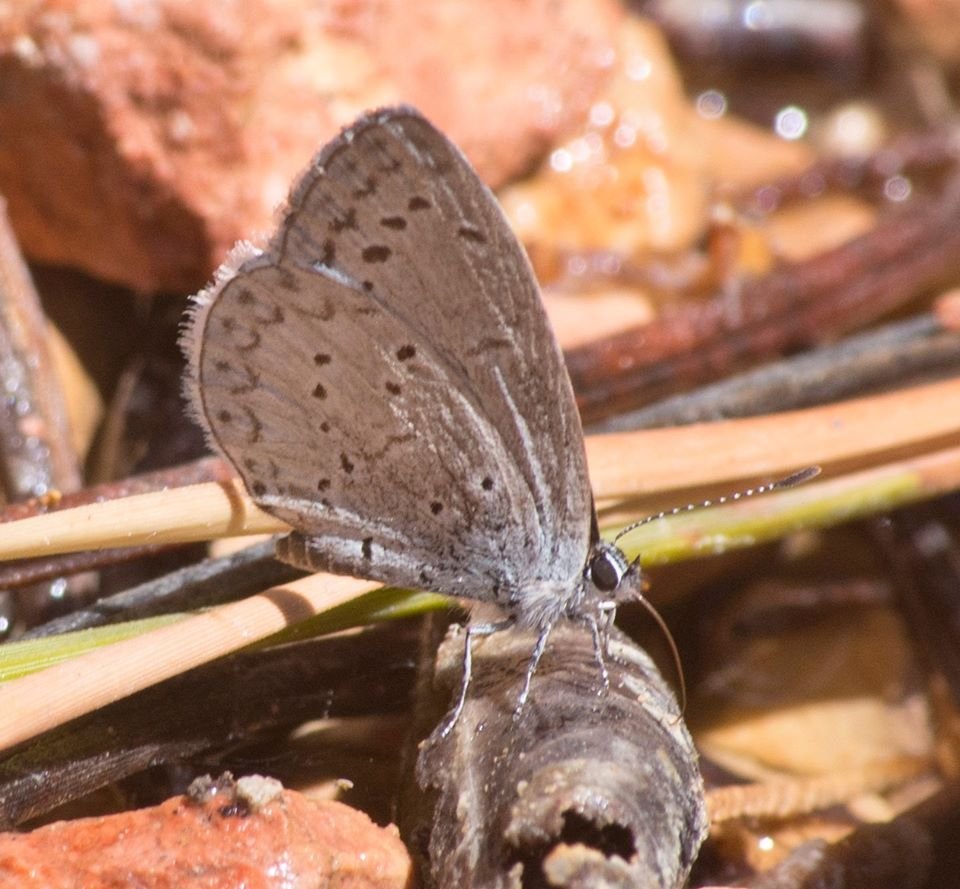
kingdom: Animalia
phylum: Arthropoda
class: Insecta
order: Lepidoptera
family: Lycaenidae
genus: Celastrina
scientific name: Celastrina ladon
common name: Echo Azure
